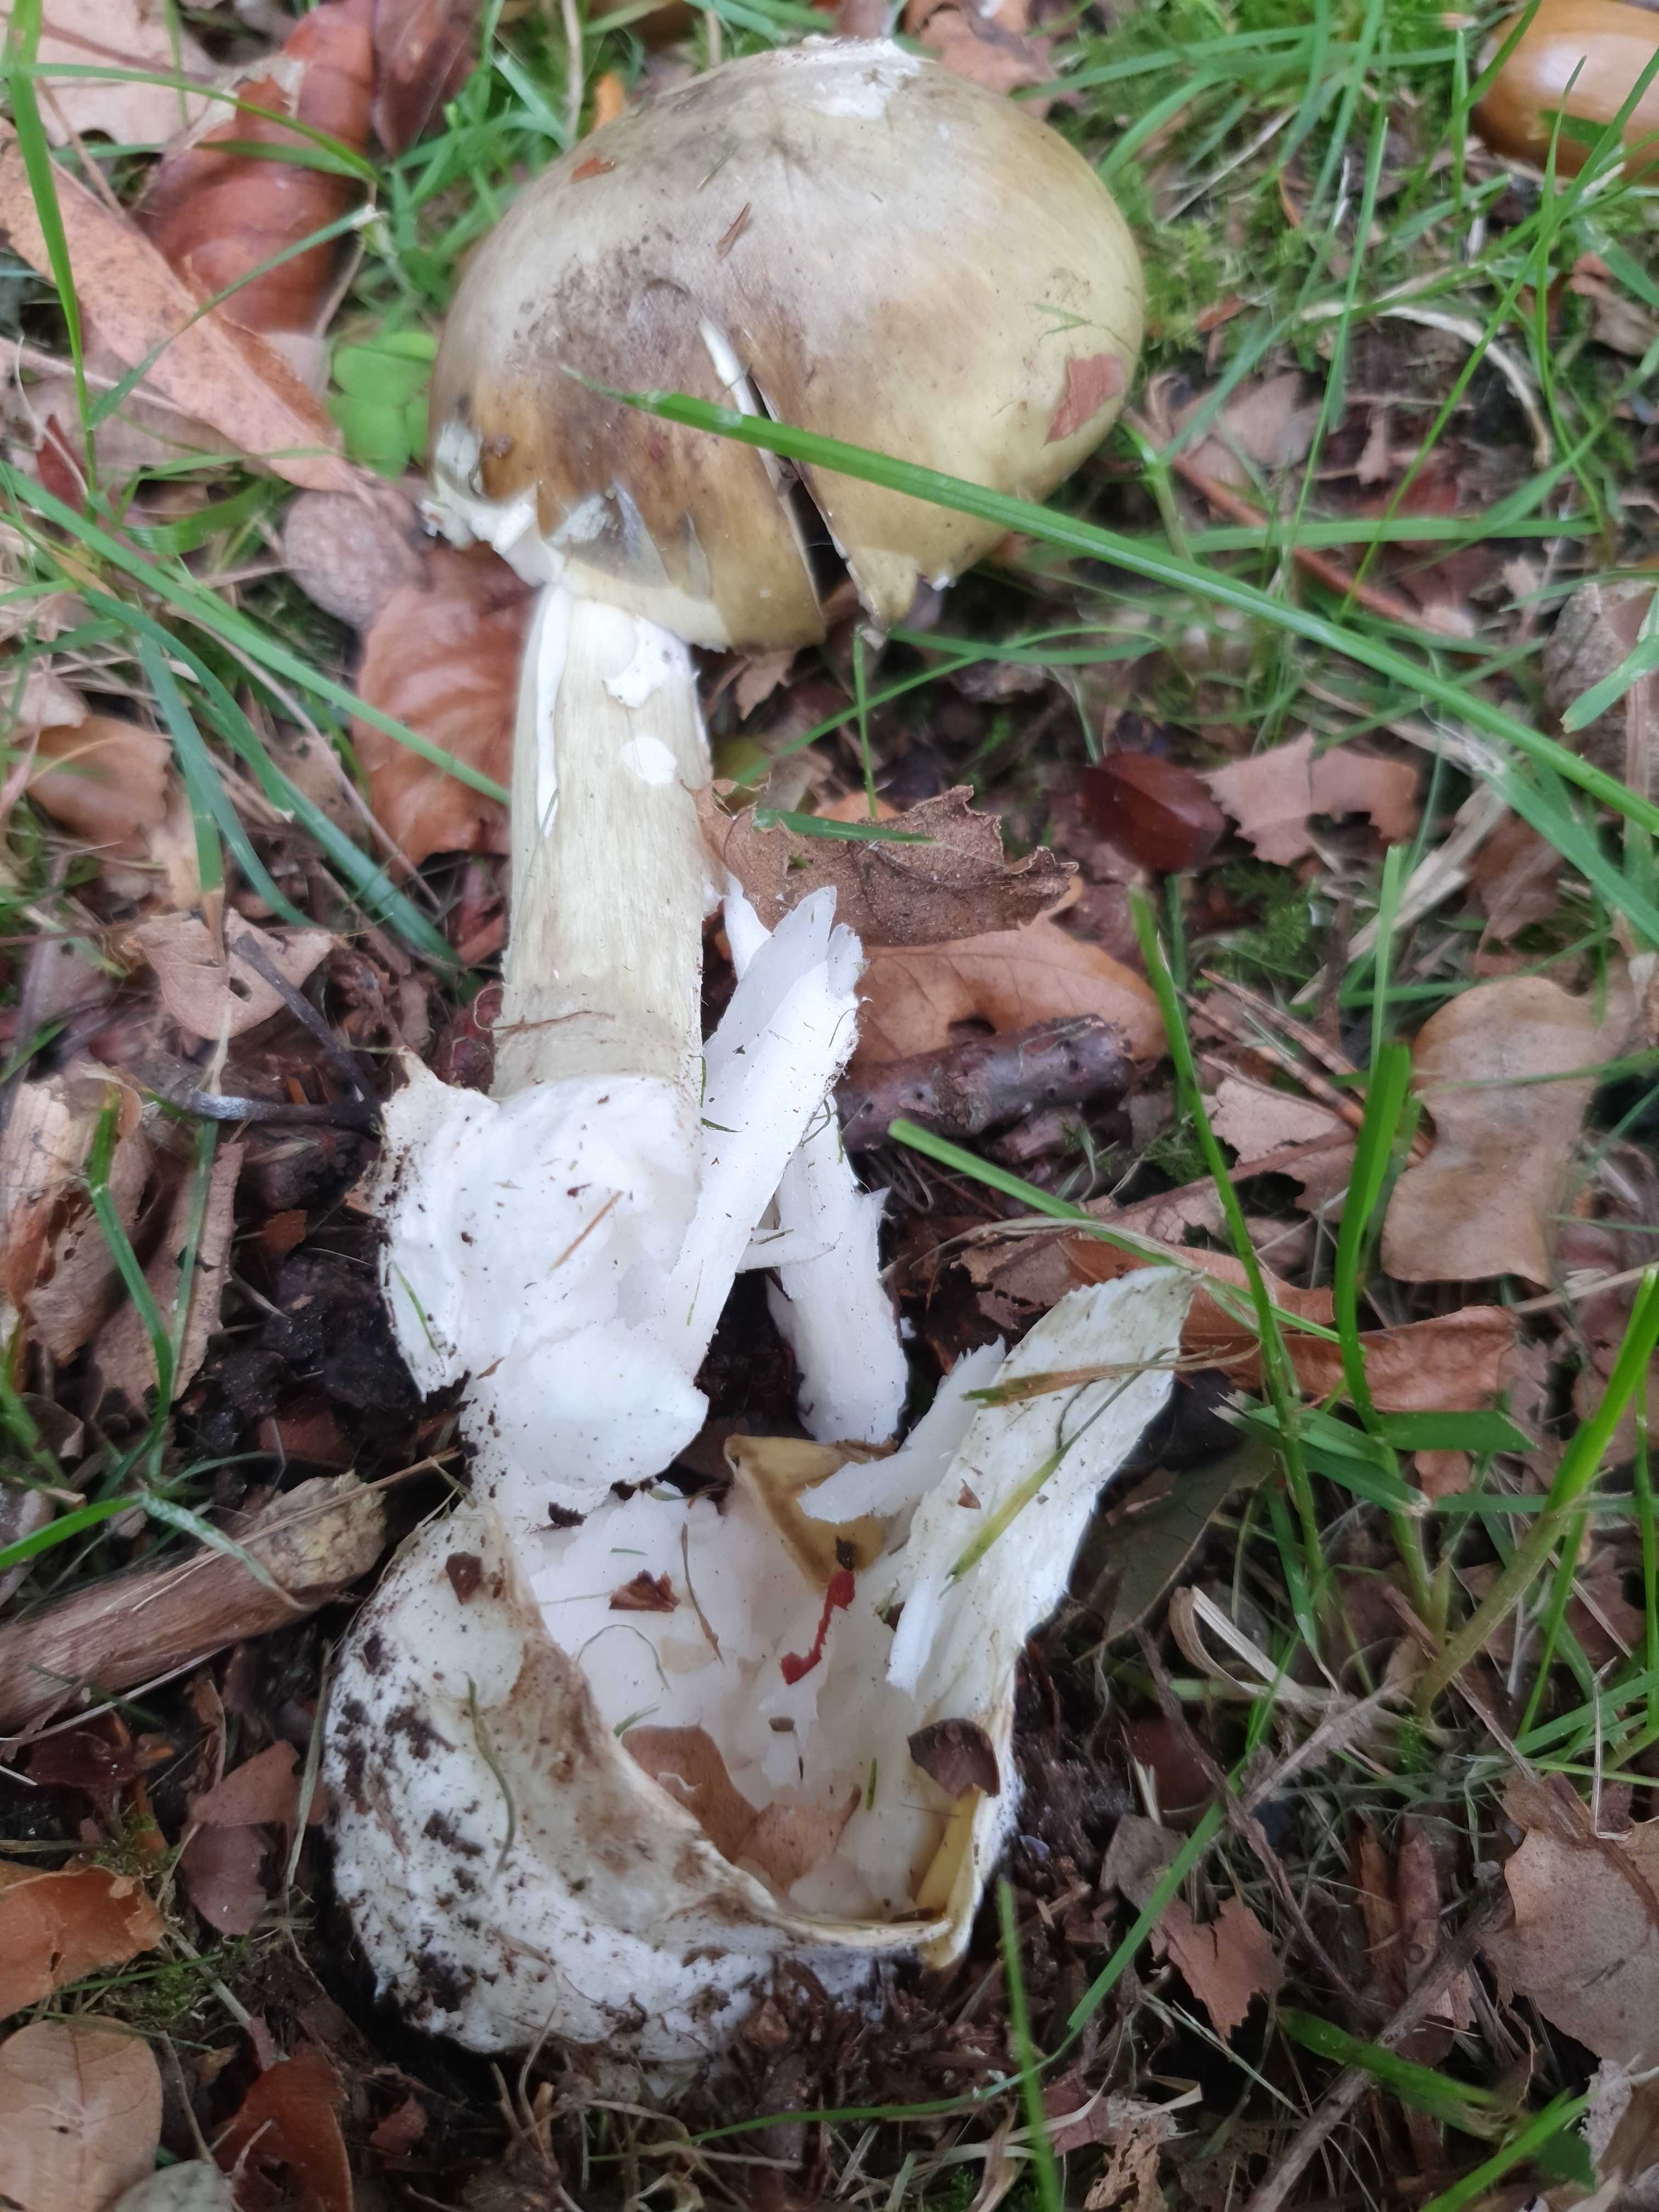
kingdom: Fungi
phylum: Basidiomycota
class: Agaricomycetes
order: Agaricales
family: Amanitaceae
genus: Amanita
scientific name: Amanita phalloides
